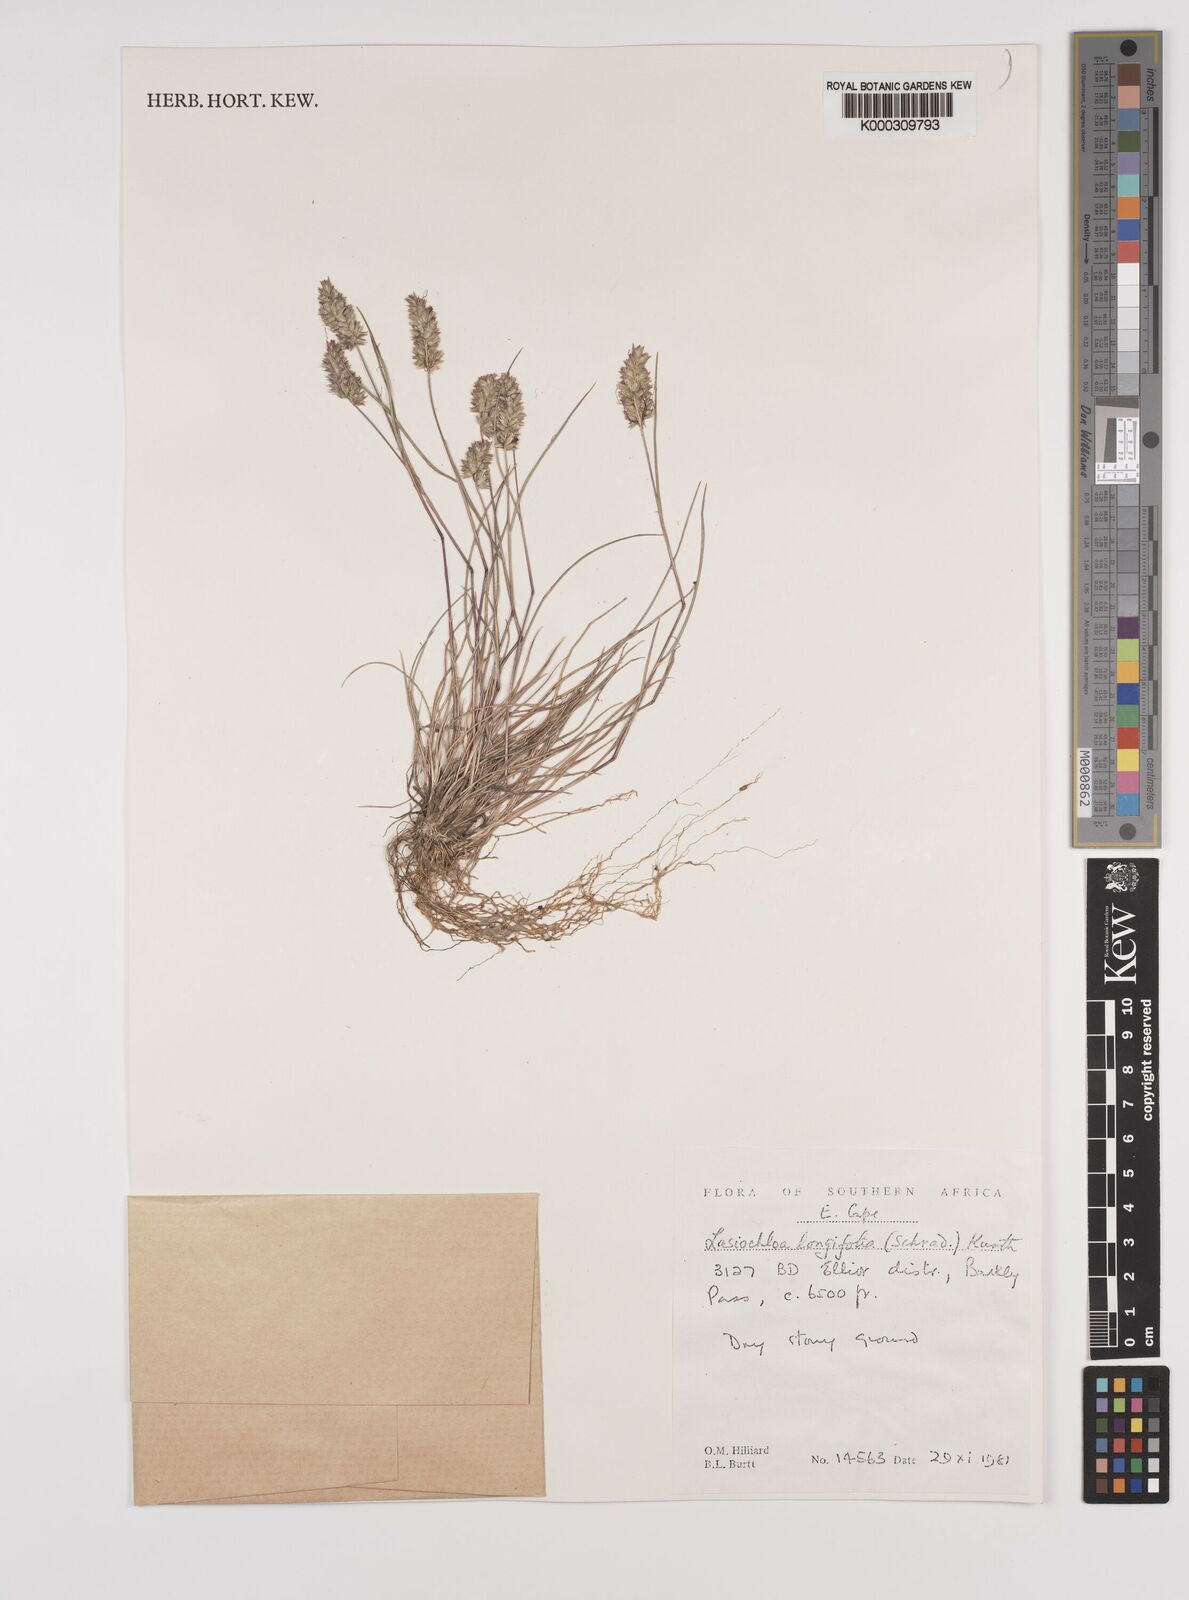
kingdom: Plantae
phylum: Tracheophyta
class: Liliopsida
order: Poales
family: Poaceae
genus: Tribolium
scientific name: Tribolium hispidum
